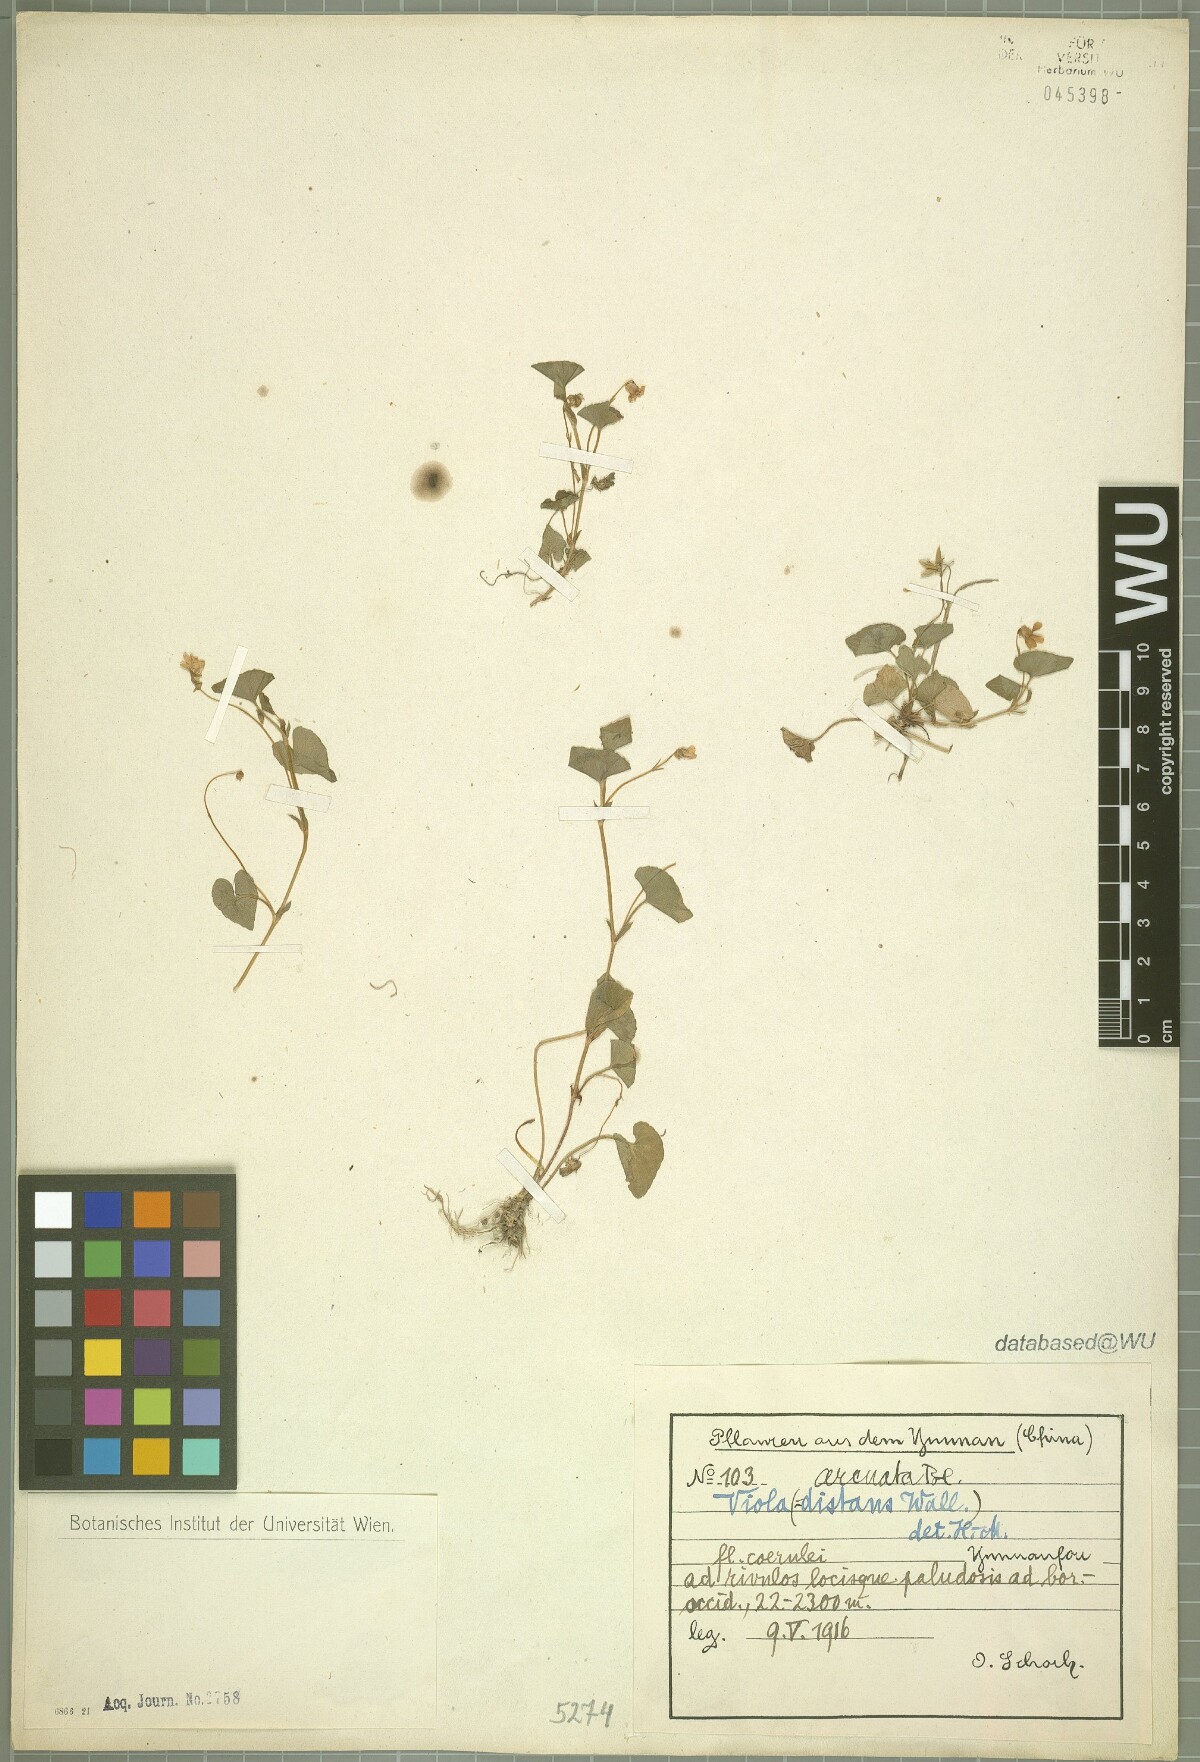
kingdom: Plantae
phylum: Tracheophyta
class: Magnoliopsida
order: Malpighiales
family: Violaceae
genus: Viola
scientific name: Viola hamiltoniana
